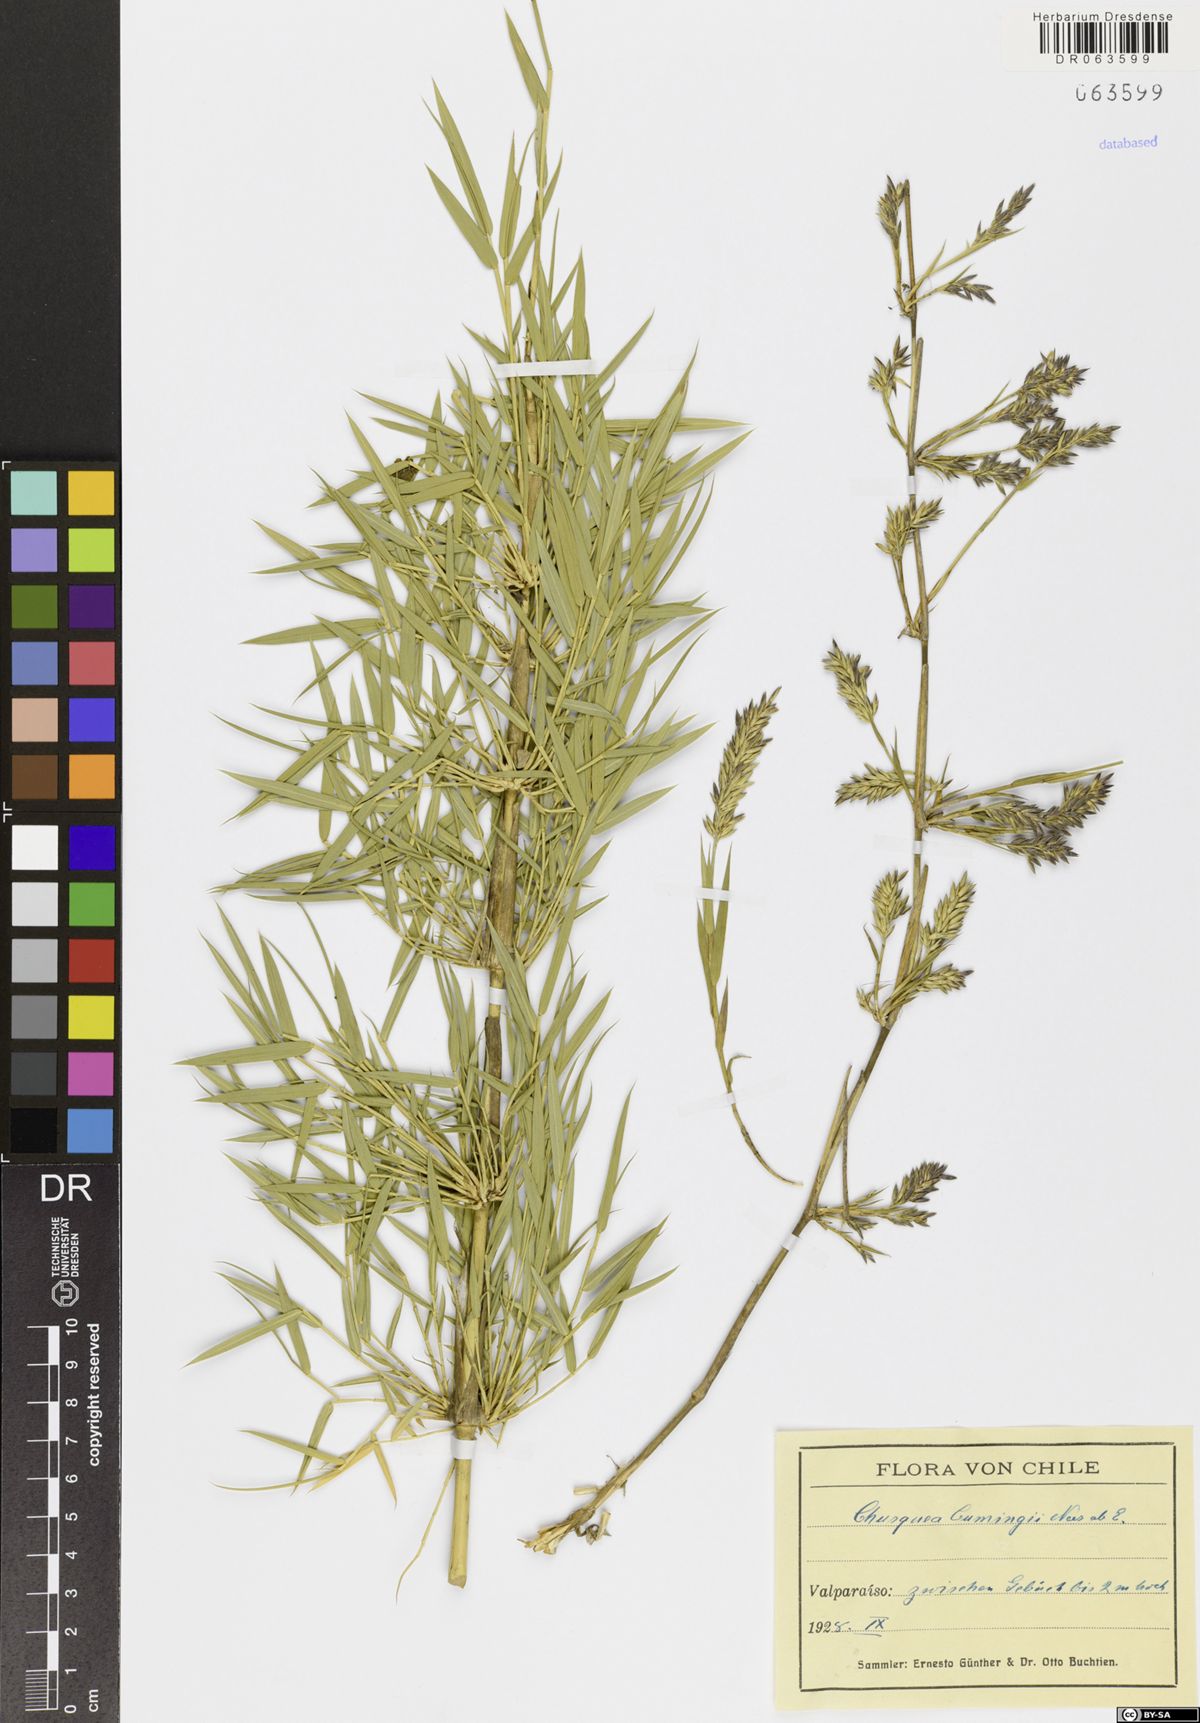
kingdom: Plantae
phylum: Tracheophyta
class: Liliopsida
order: Poales
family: Poaceae
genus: Chusquea
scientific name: Chusquea cumingii
